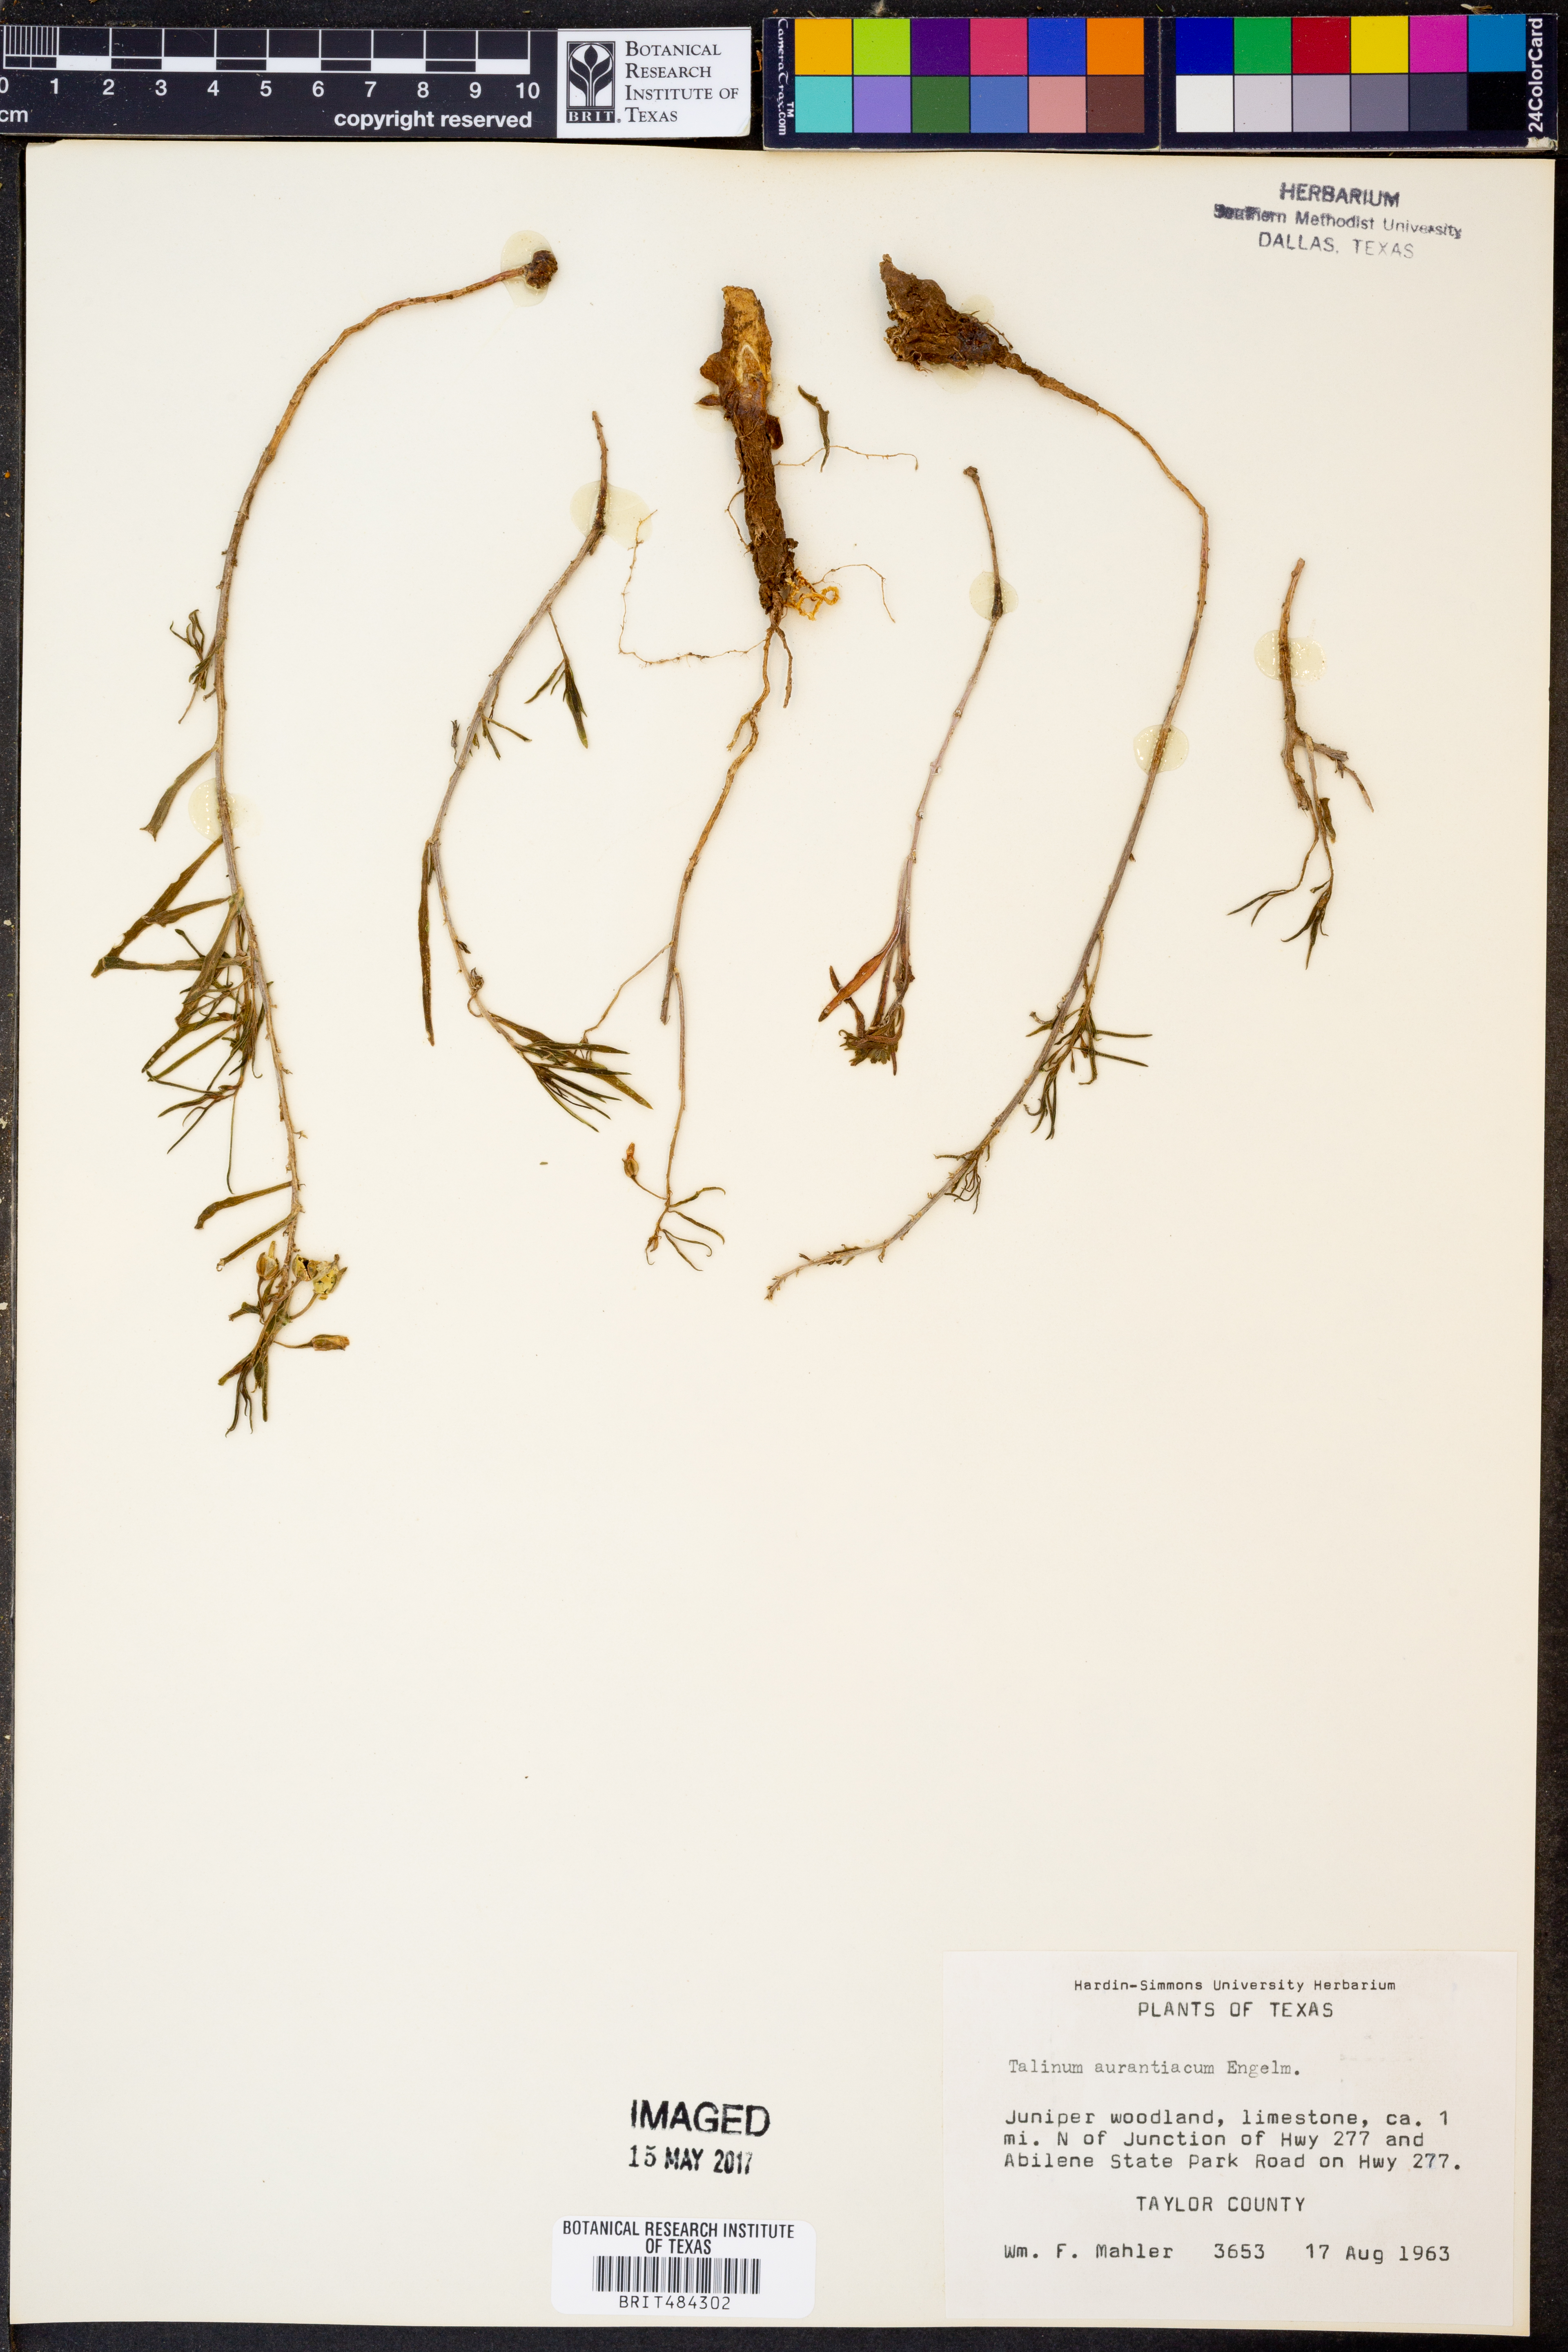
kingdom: Plantae
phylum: Tracheophyta
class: Magnoliopsida
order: Caryophyllales
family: Montiaceae
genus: Phemeranthus
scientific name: Phemeranthus aurantiacus
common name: Orange fameflower
